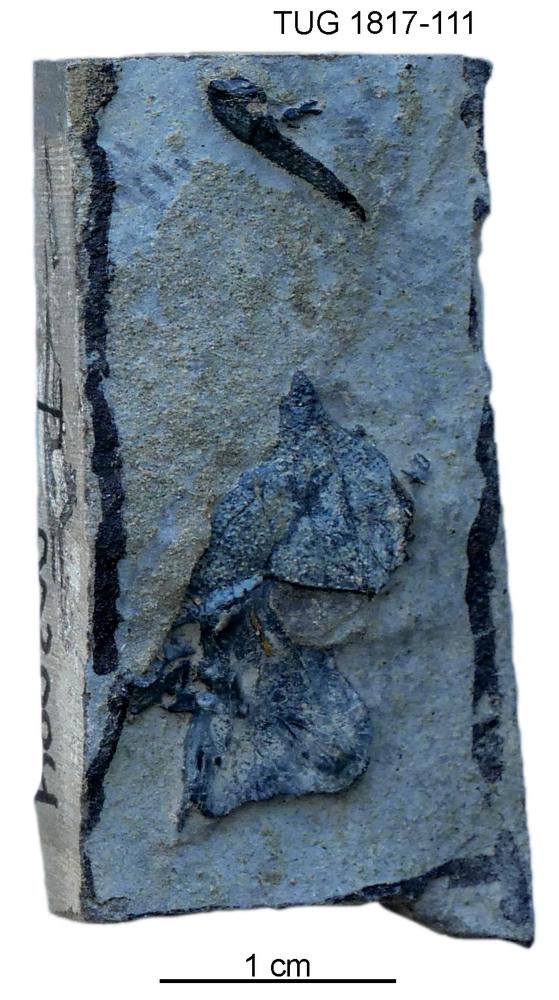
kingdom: Animalia
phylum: Chordata
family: Coccosteidae
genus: Millerosteus
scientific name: Millerosteus minor
